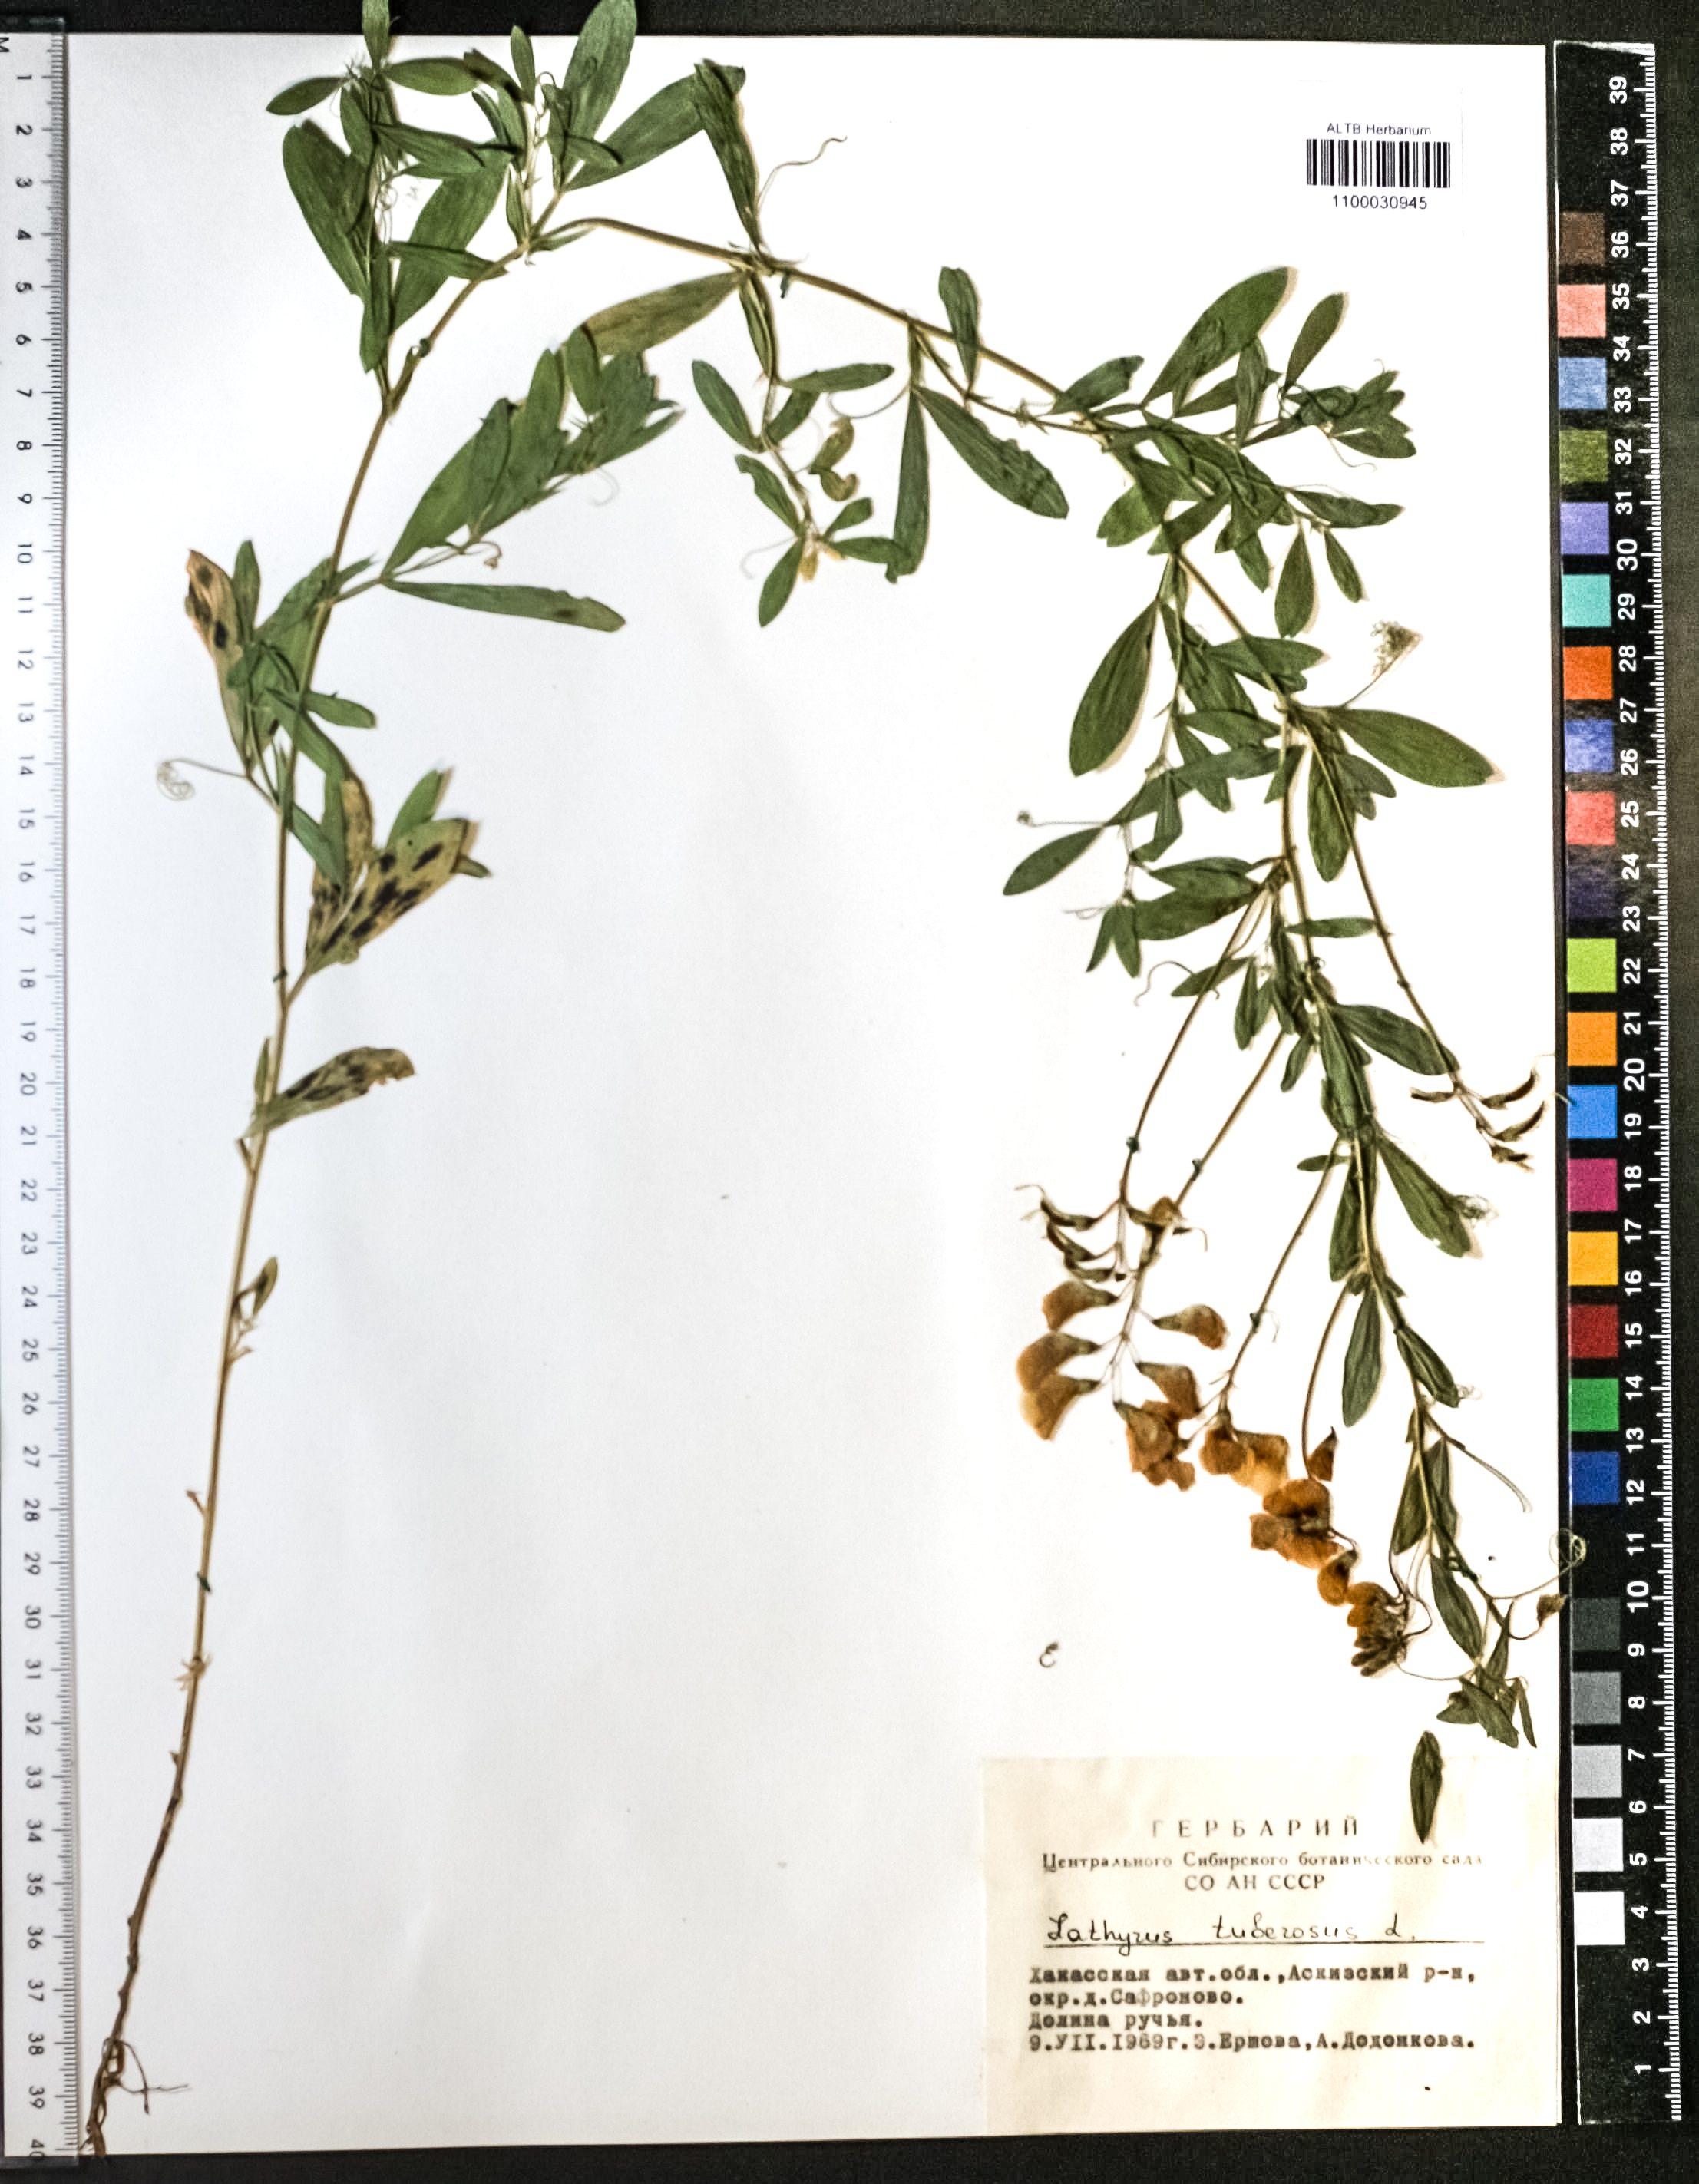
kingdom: Plantae
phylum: Tracheophyta
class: Magnoliopsida
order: Fabales
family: Fabaceae
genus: Lathyrus
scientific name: Lathyrus tuberosus
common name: Tuberous pea
